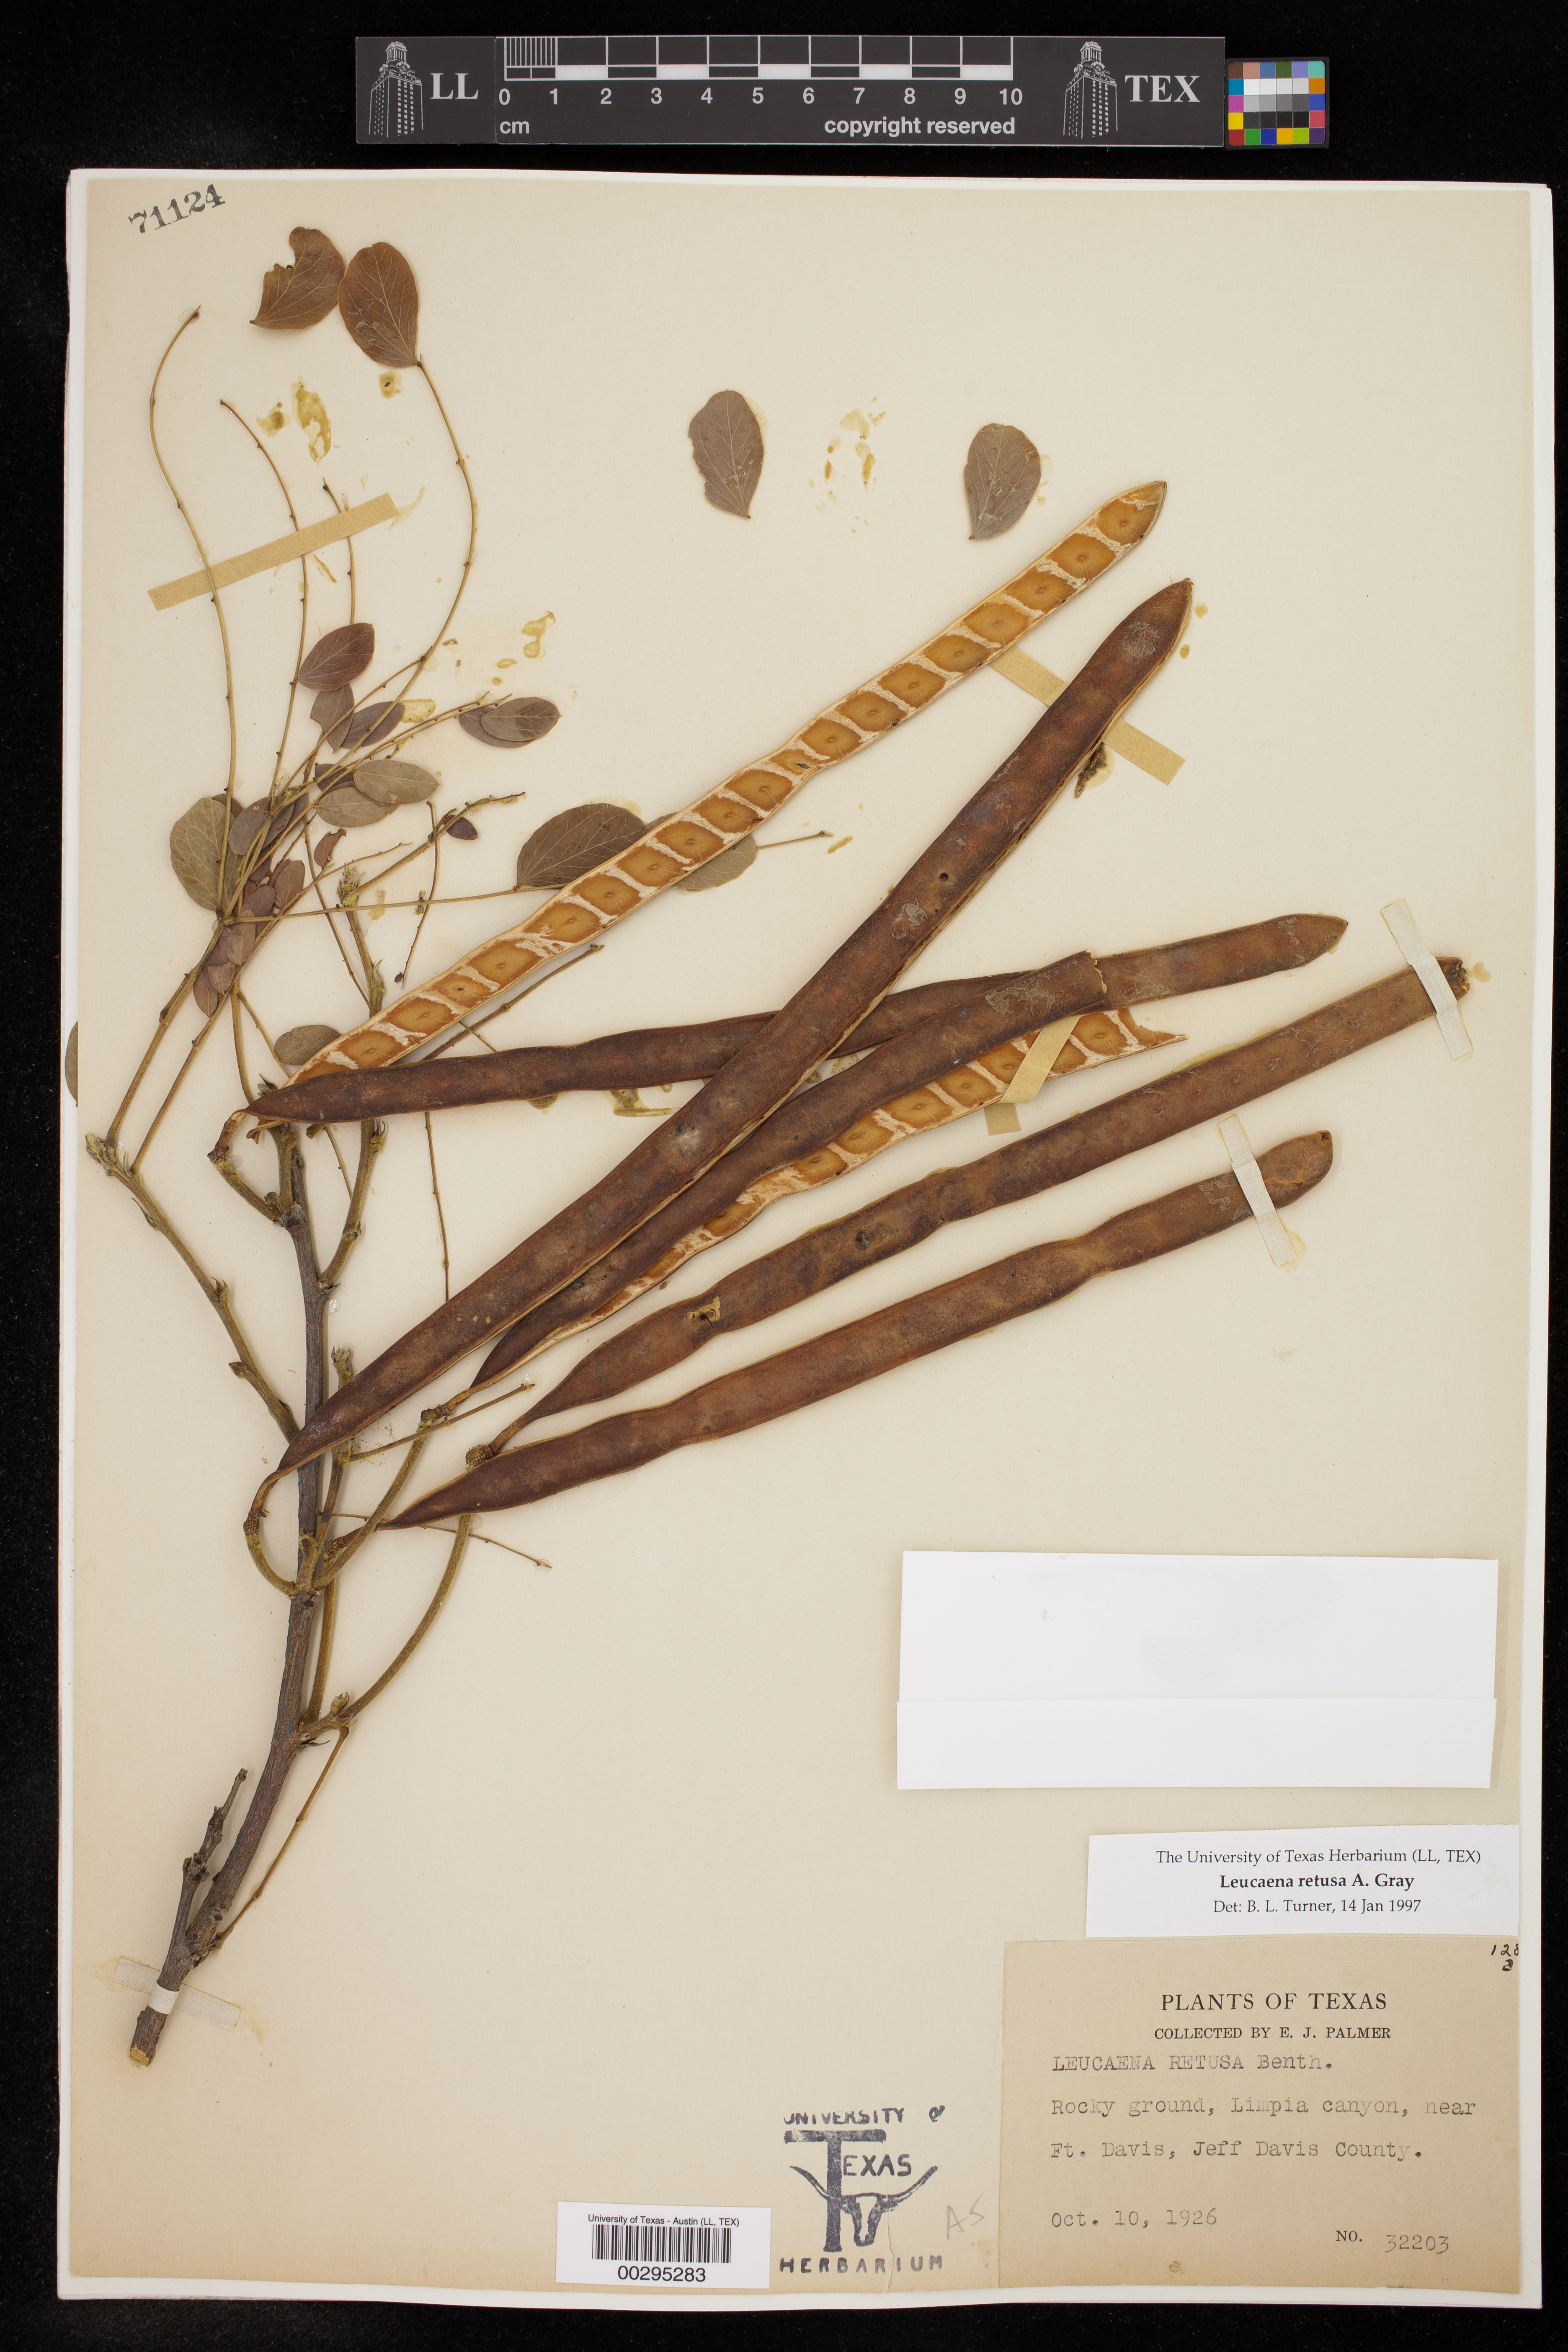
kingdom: Plantae
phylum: Tracheophyta
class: Magnoliopsida
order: Fabales
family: Fabaceae
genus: Leucaena
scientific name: Leucaena retusa
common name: Littleleaf leadtree
